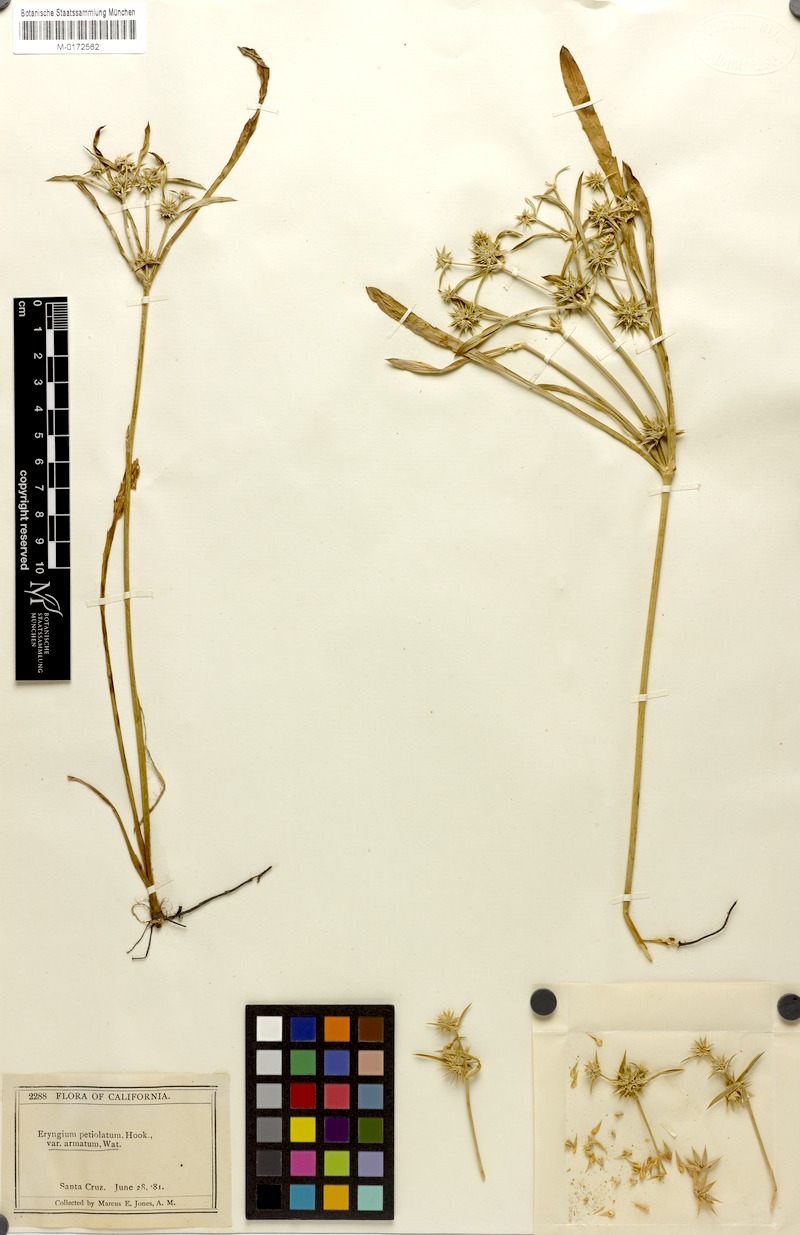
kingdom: Plantae
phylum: Tracheophyta
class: Magnoliopsida
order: Apiales
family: Apiaceae
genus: Eryngium
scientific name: Eryngium armatum
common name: Coyote thistle
